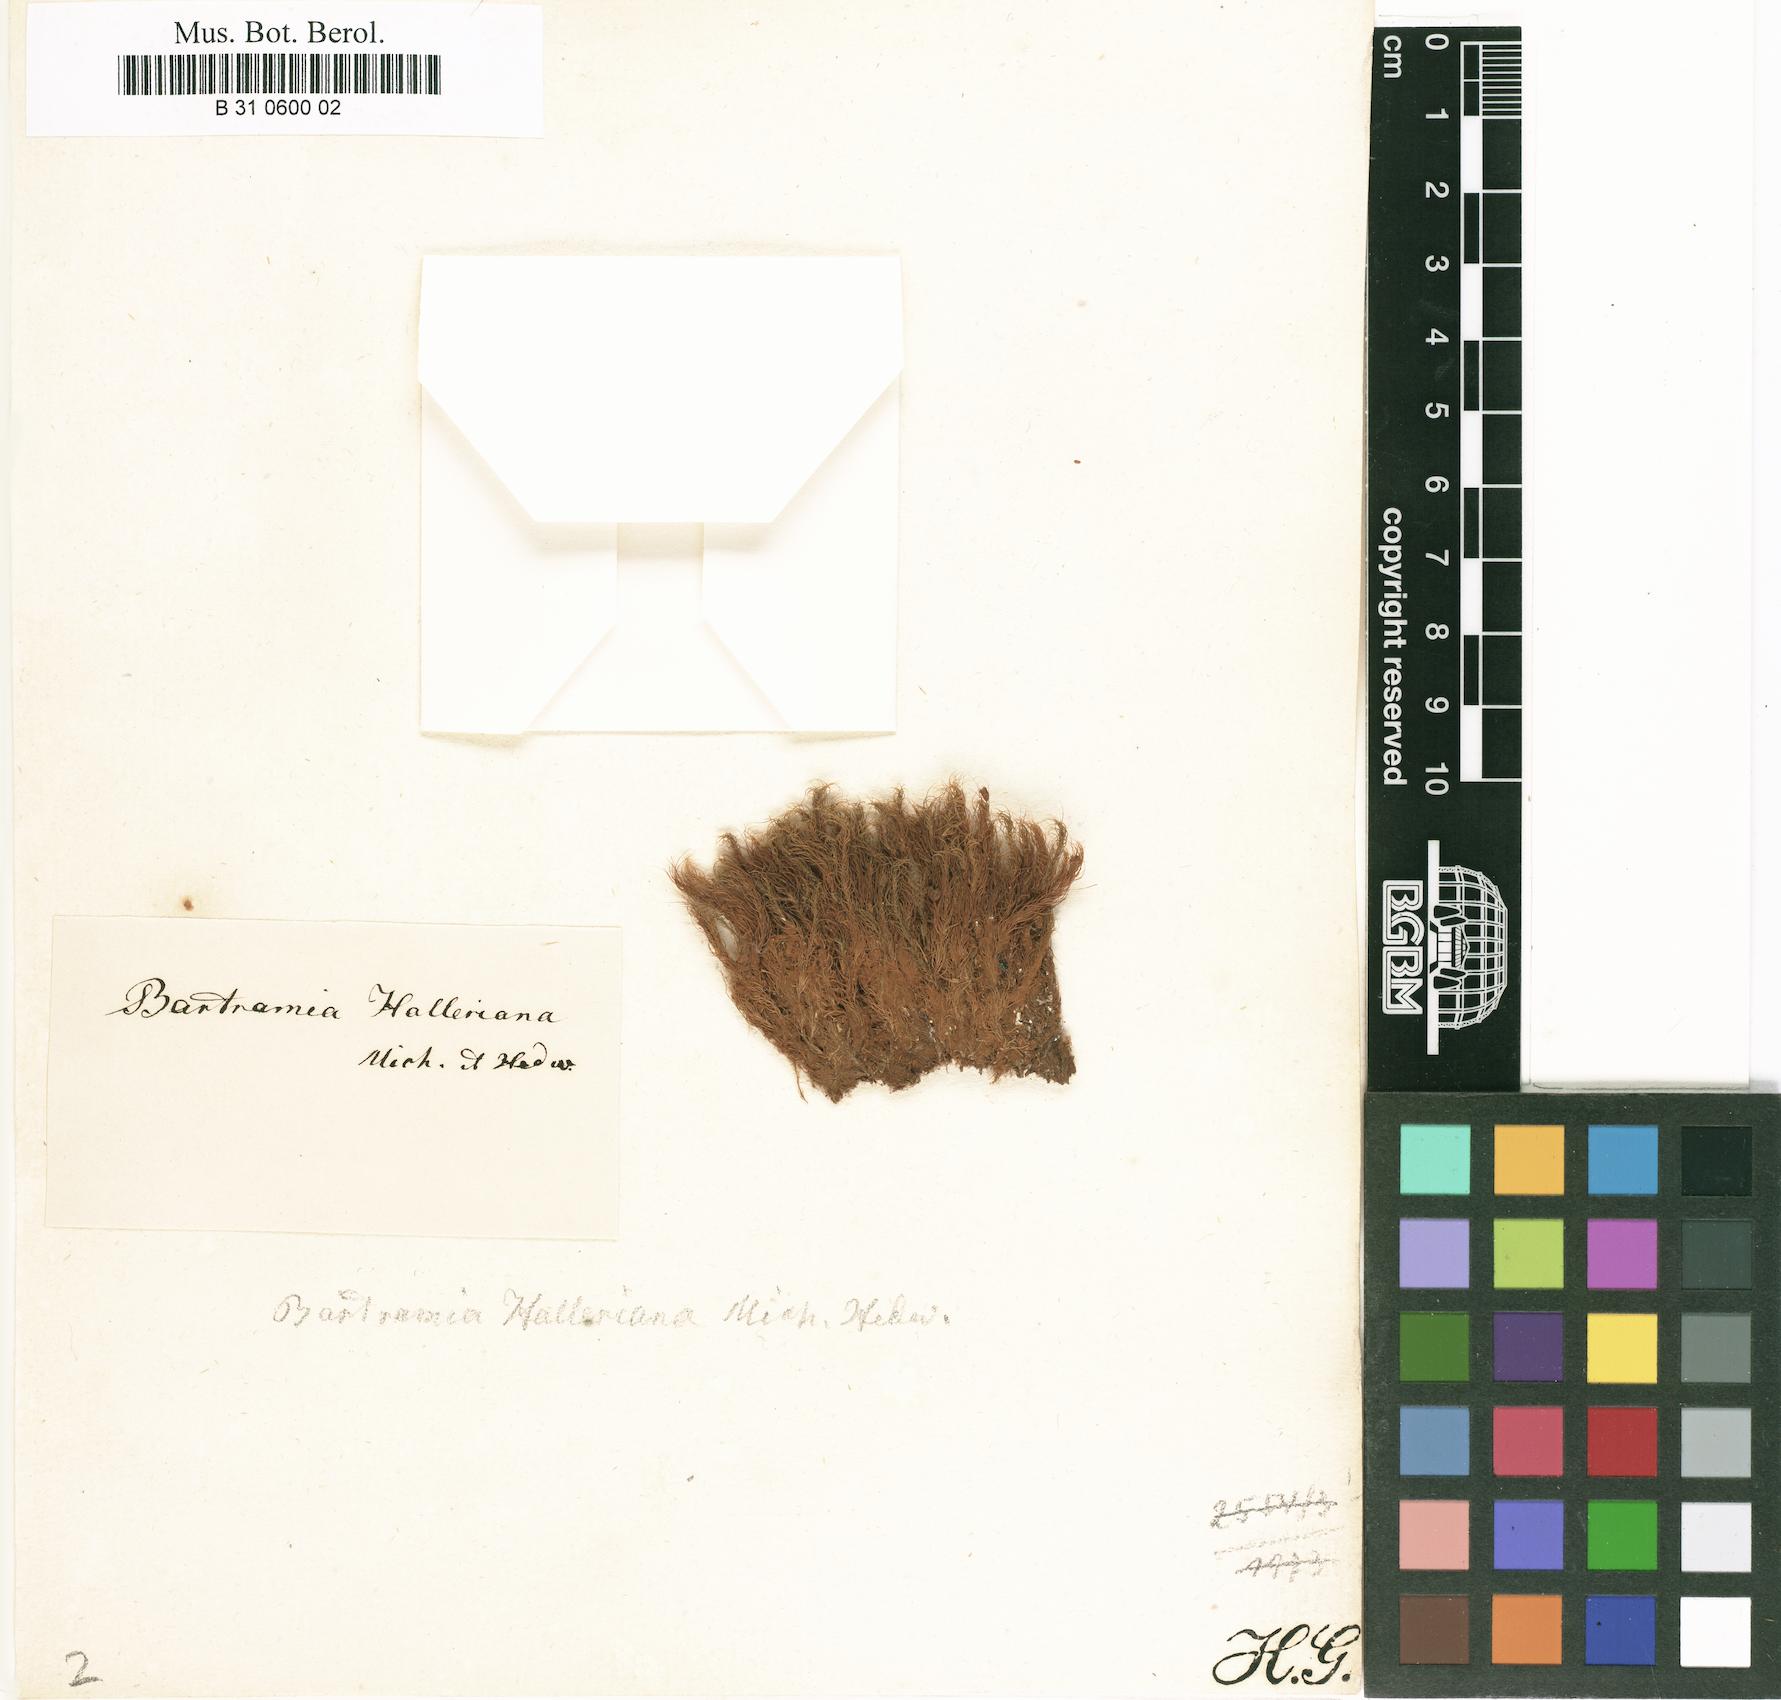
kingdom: Plantae
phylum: Bryophyta
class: Bryopsida
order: Bartramiales
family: Bartramiaceae
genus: Bartramia
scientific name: Bartramia halleriana
